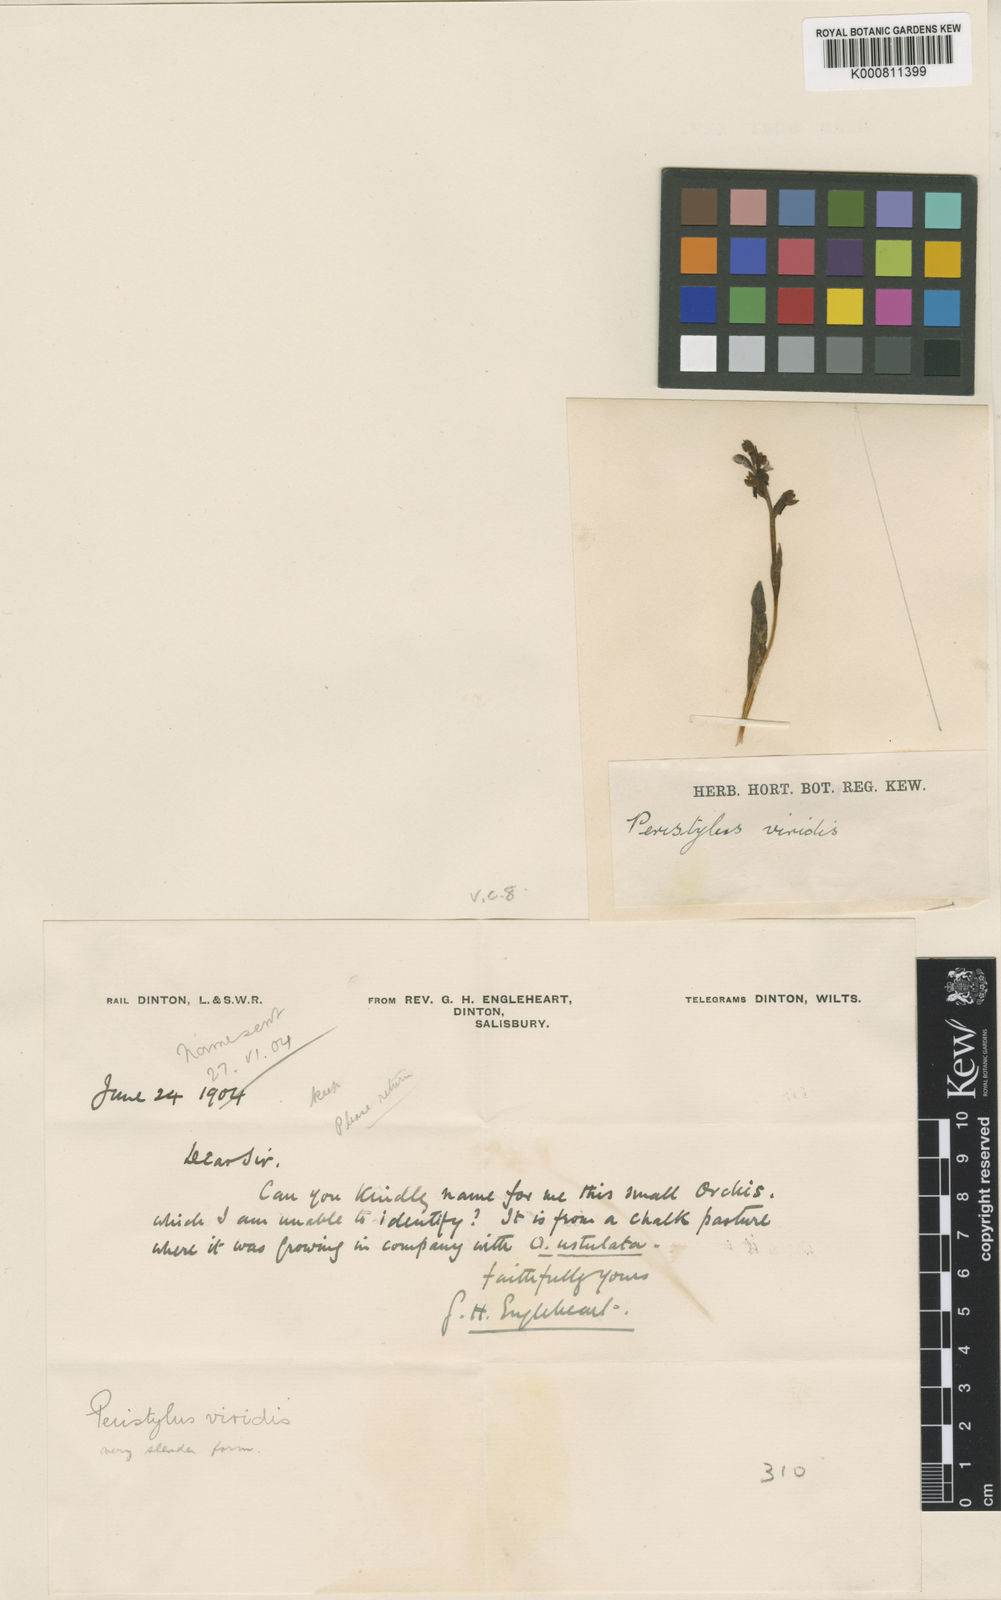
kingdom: Plantae
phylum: Tracheophyta
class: Liliopsida
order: Asparagales
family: Orchidaceae
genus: Dactylorhiza
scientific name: Dactylorhiza viridis
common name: Longbract frog orchid
